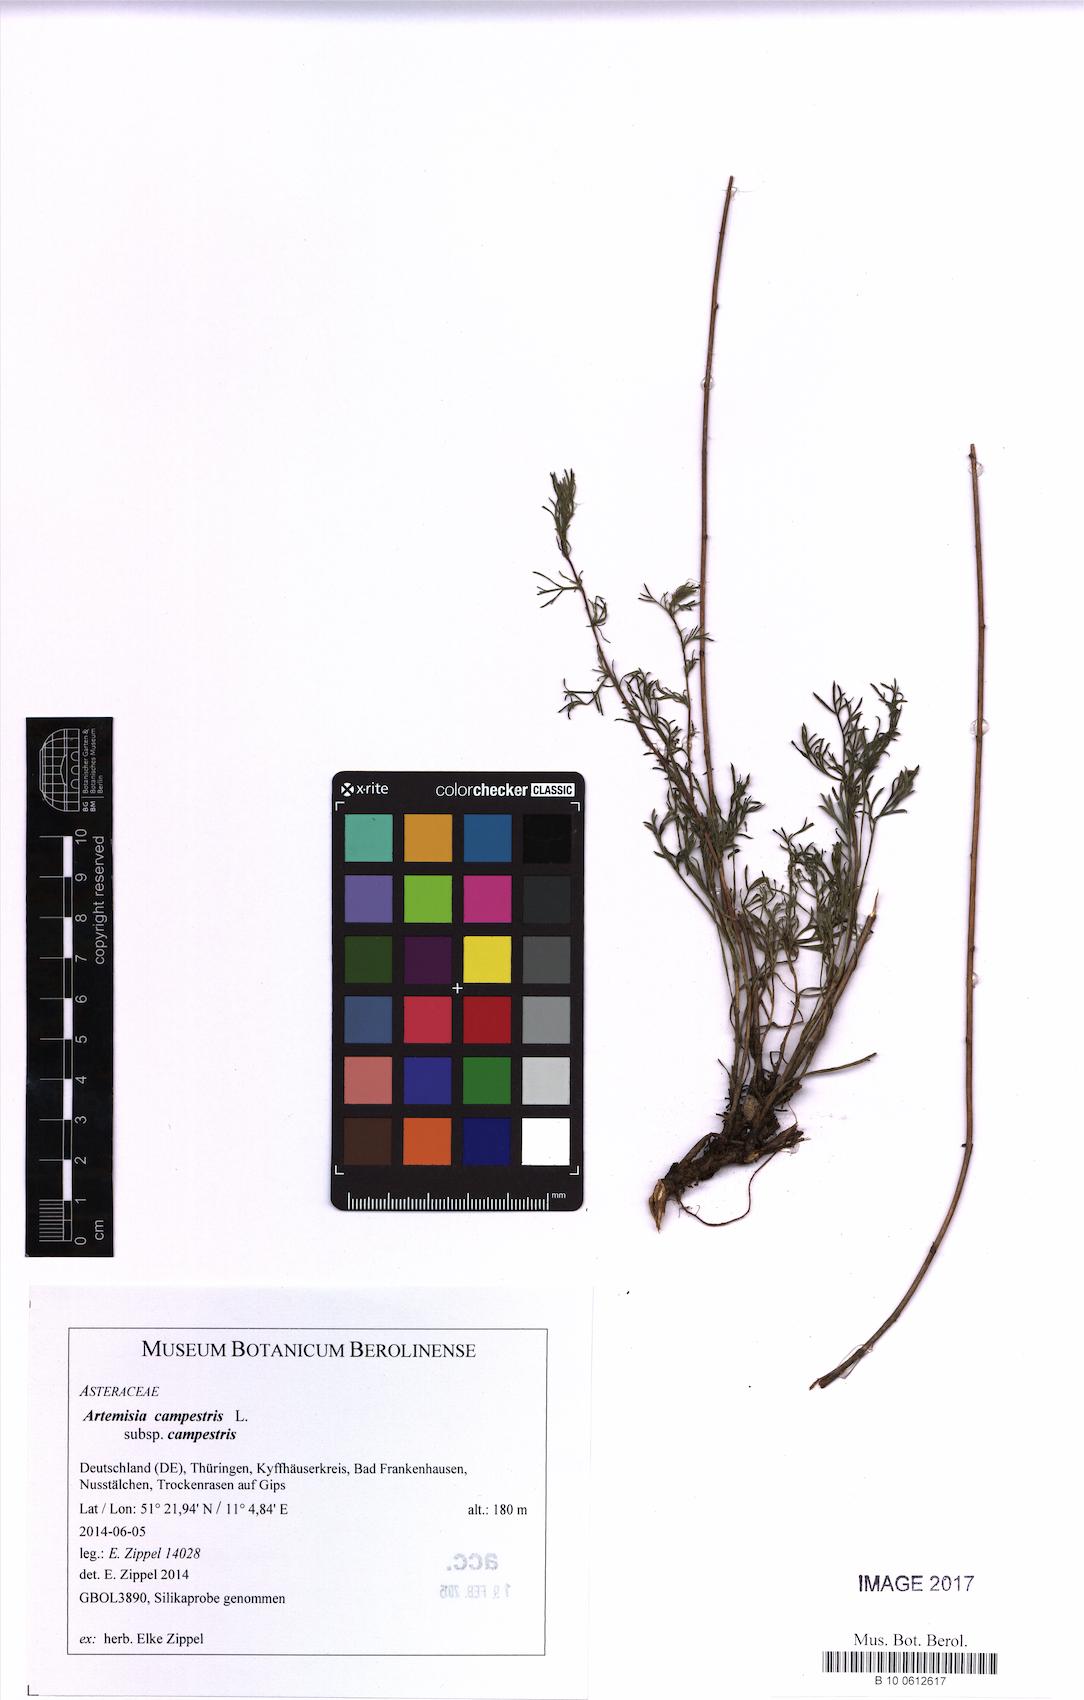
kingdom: Plantae
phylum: Tracheophyta
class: Magnoliopsida
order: Asterales
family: Asteraceae
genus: Artemisia
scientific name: Artemisia campestris
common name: Field wormwood
